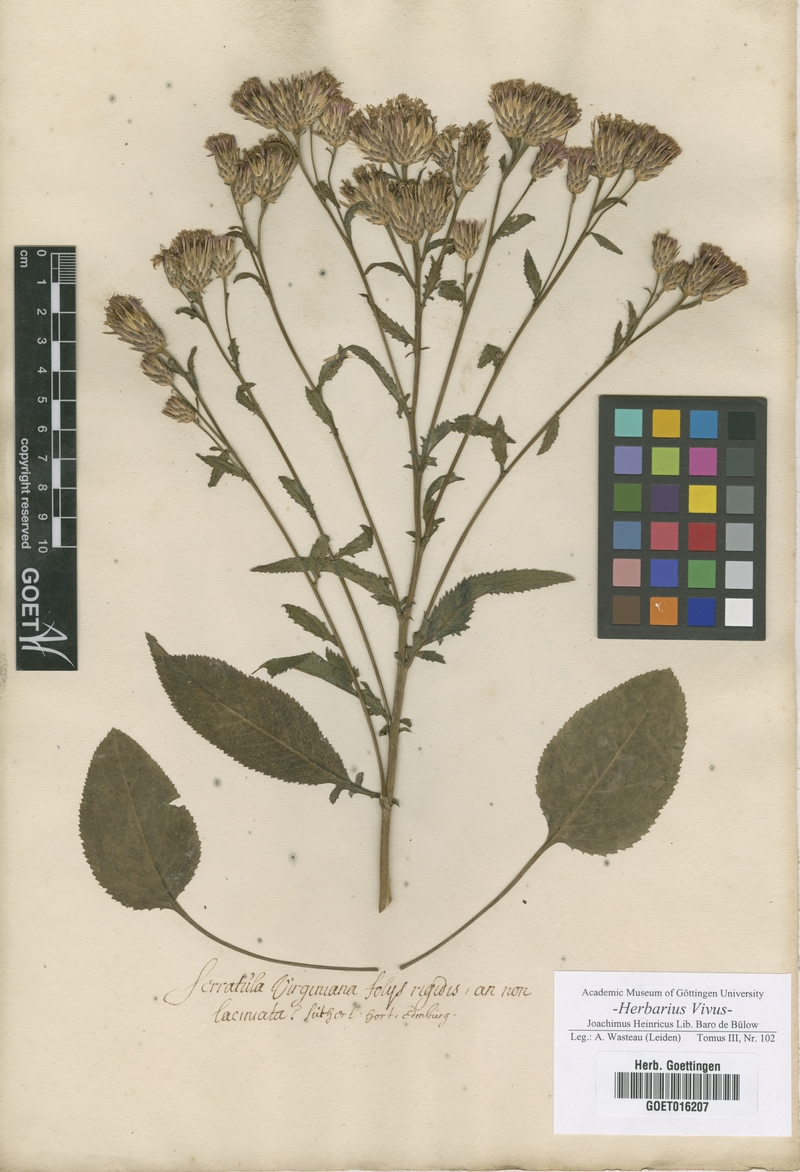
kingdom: Plantae
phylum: Tracheophyta
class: Magnoliopsida
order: Asterales
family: Asteraceae
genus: Serratula
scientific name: Serratula
